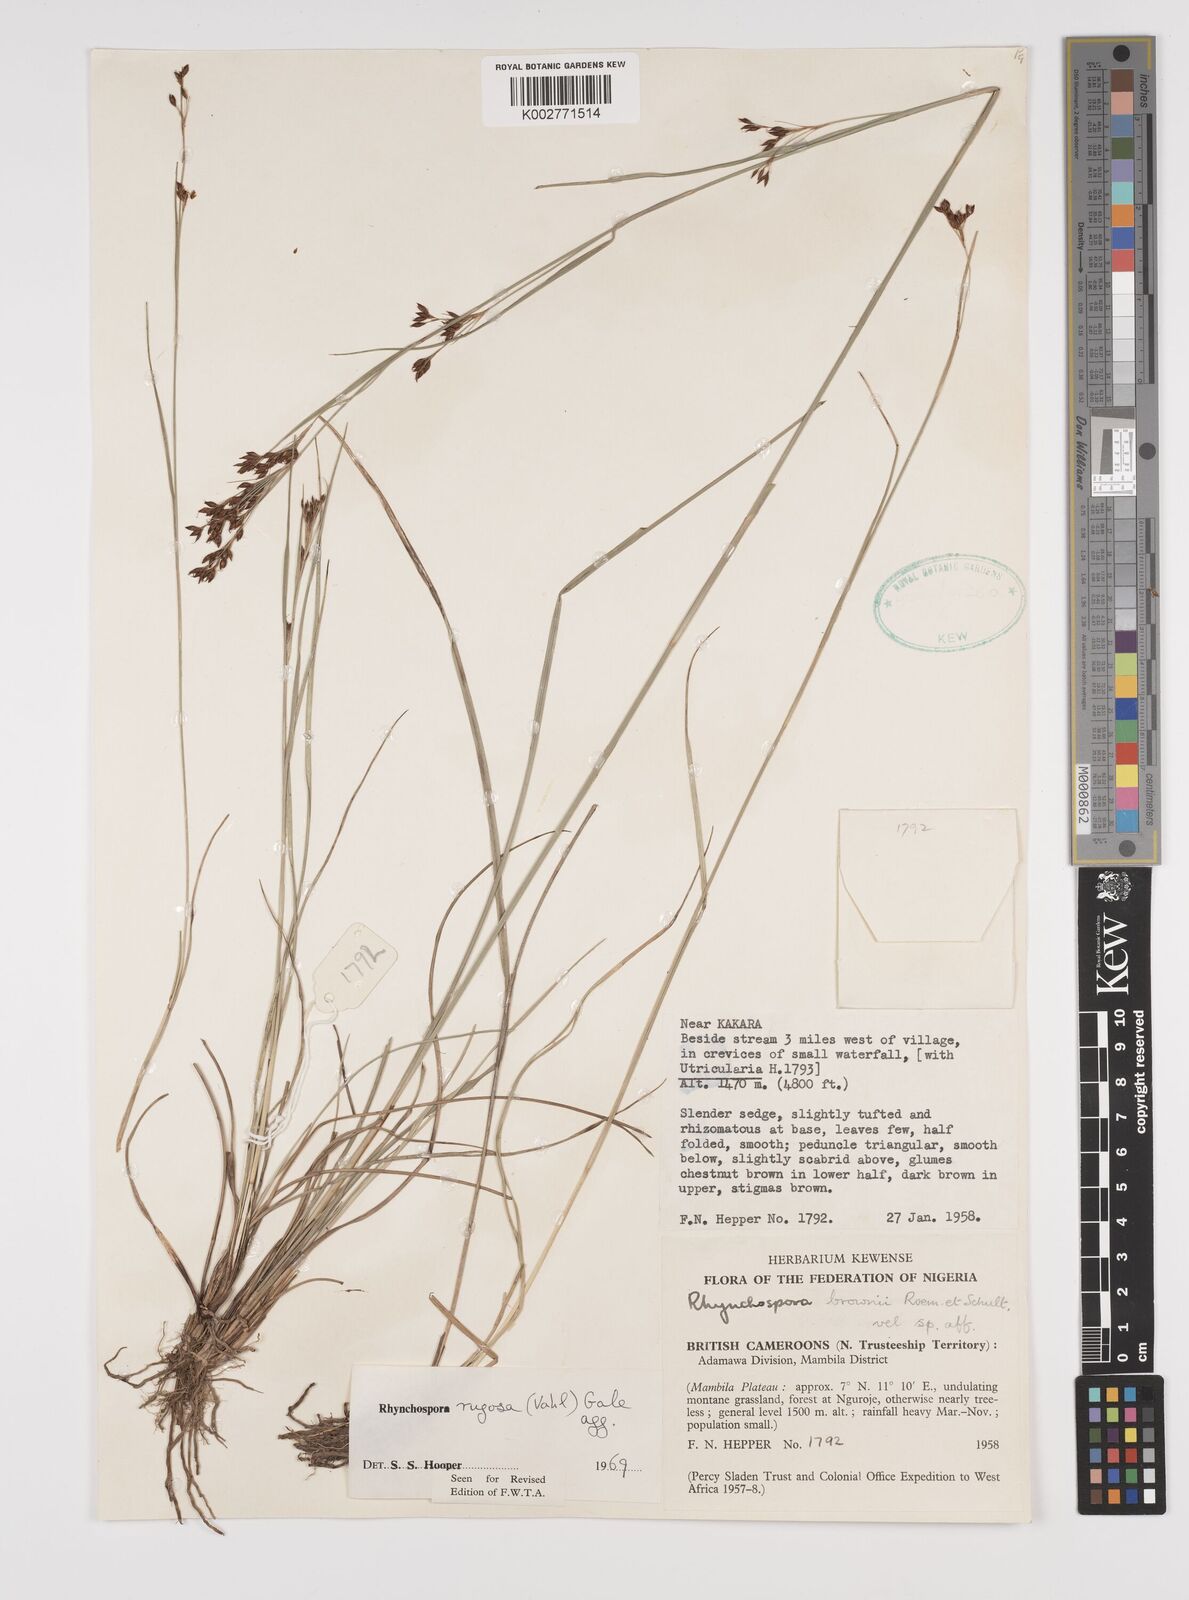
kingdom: Plantae
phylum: Tracheophyta
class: Liliopsida
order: Poales
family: Cyperaceae
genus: Rhynchospora
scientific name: Rhynchospora rugosa
